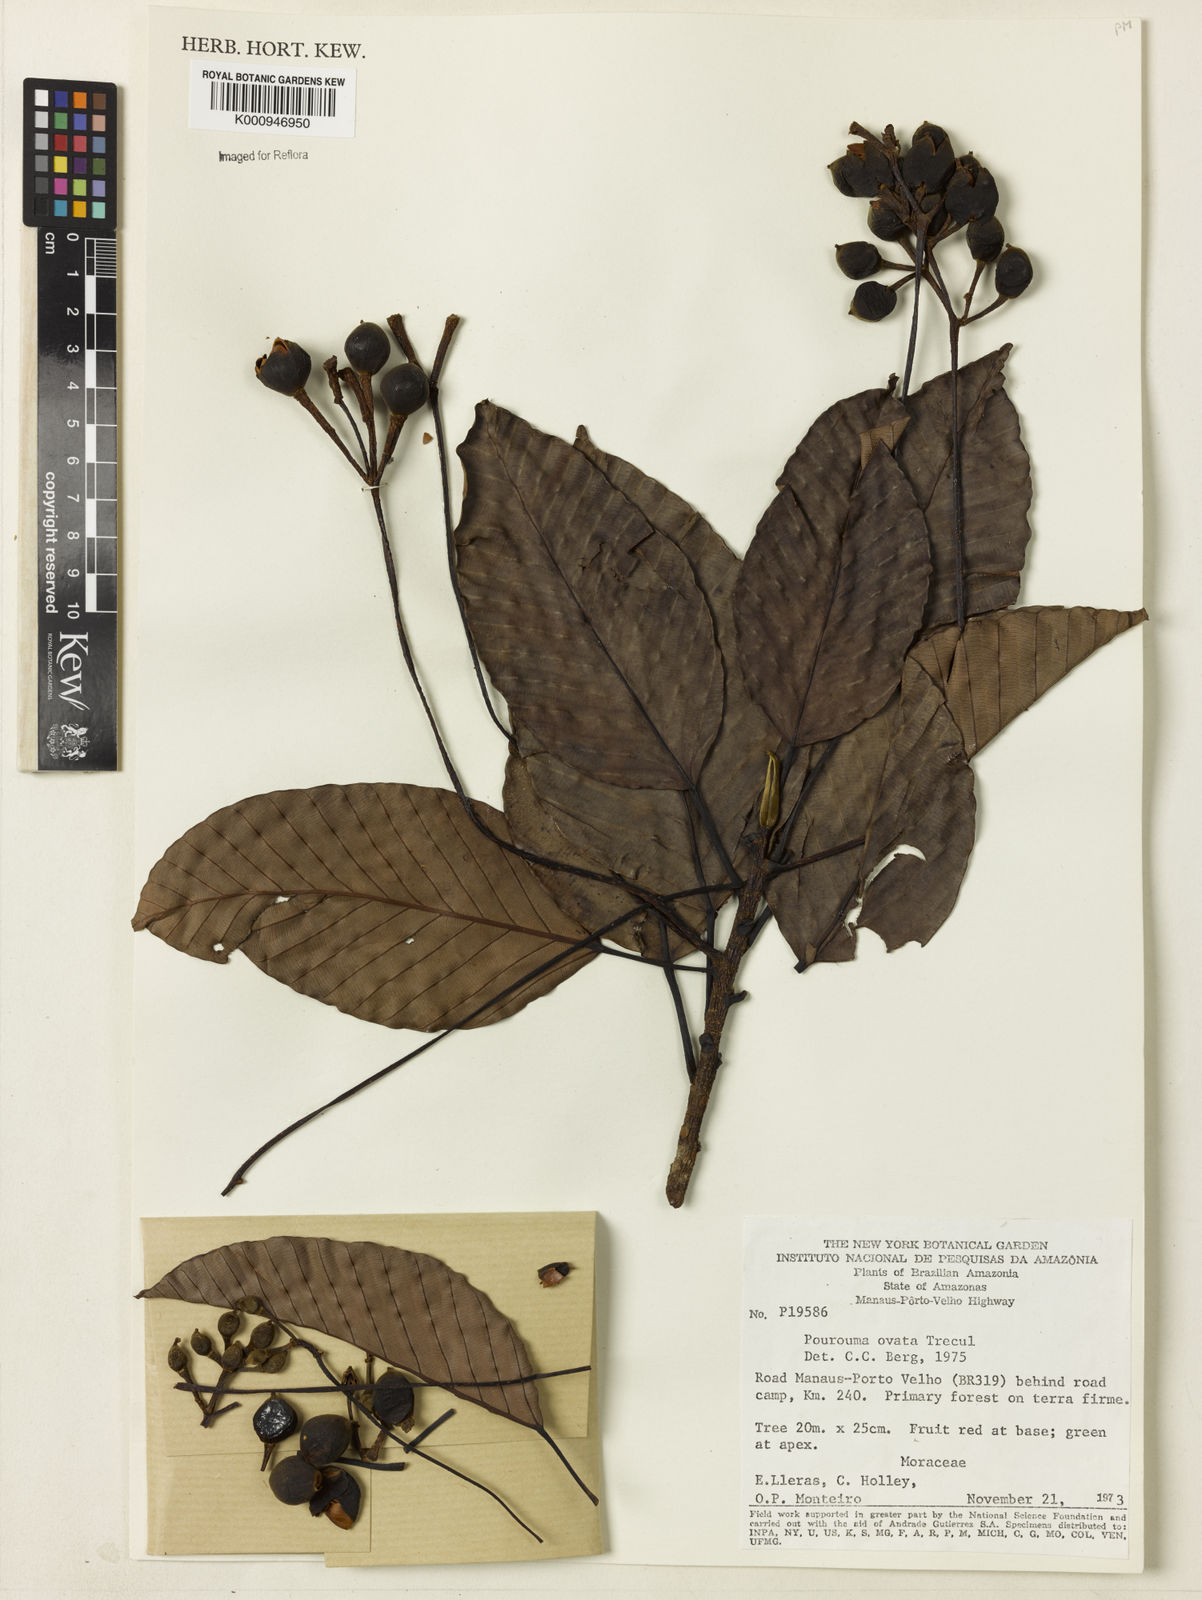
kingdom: Plantae
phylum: Tracheophyta
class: Magnoliopsida
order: Rosales
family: Urticaceae
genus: Pourouma
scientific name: Pourouma
